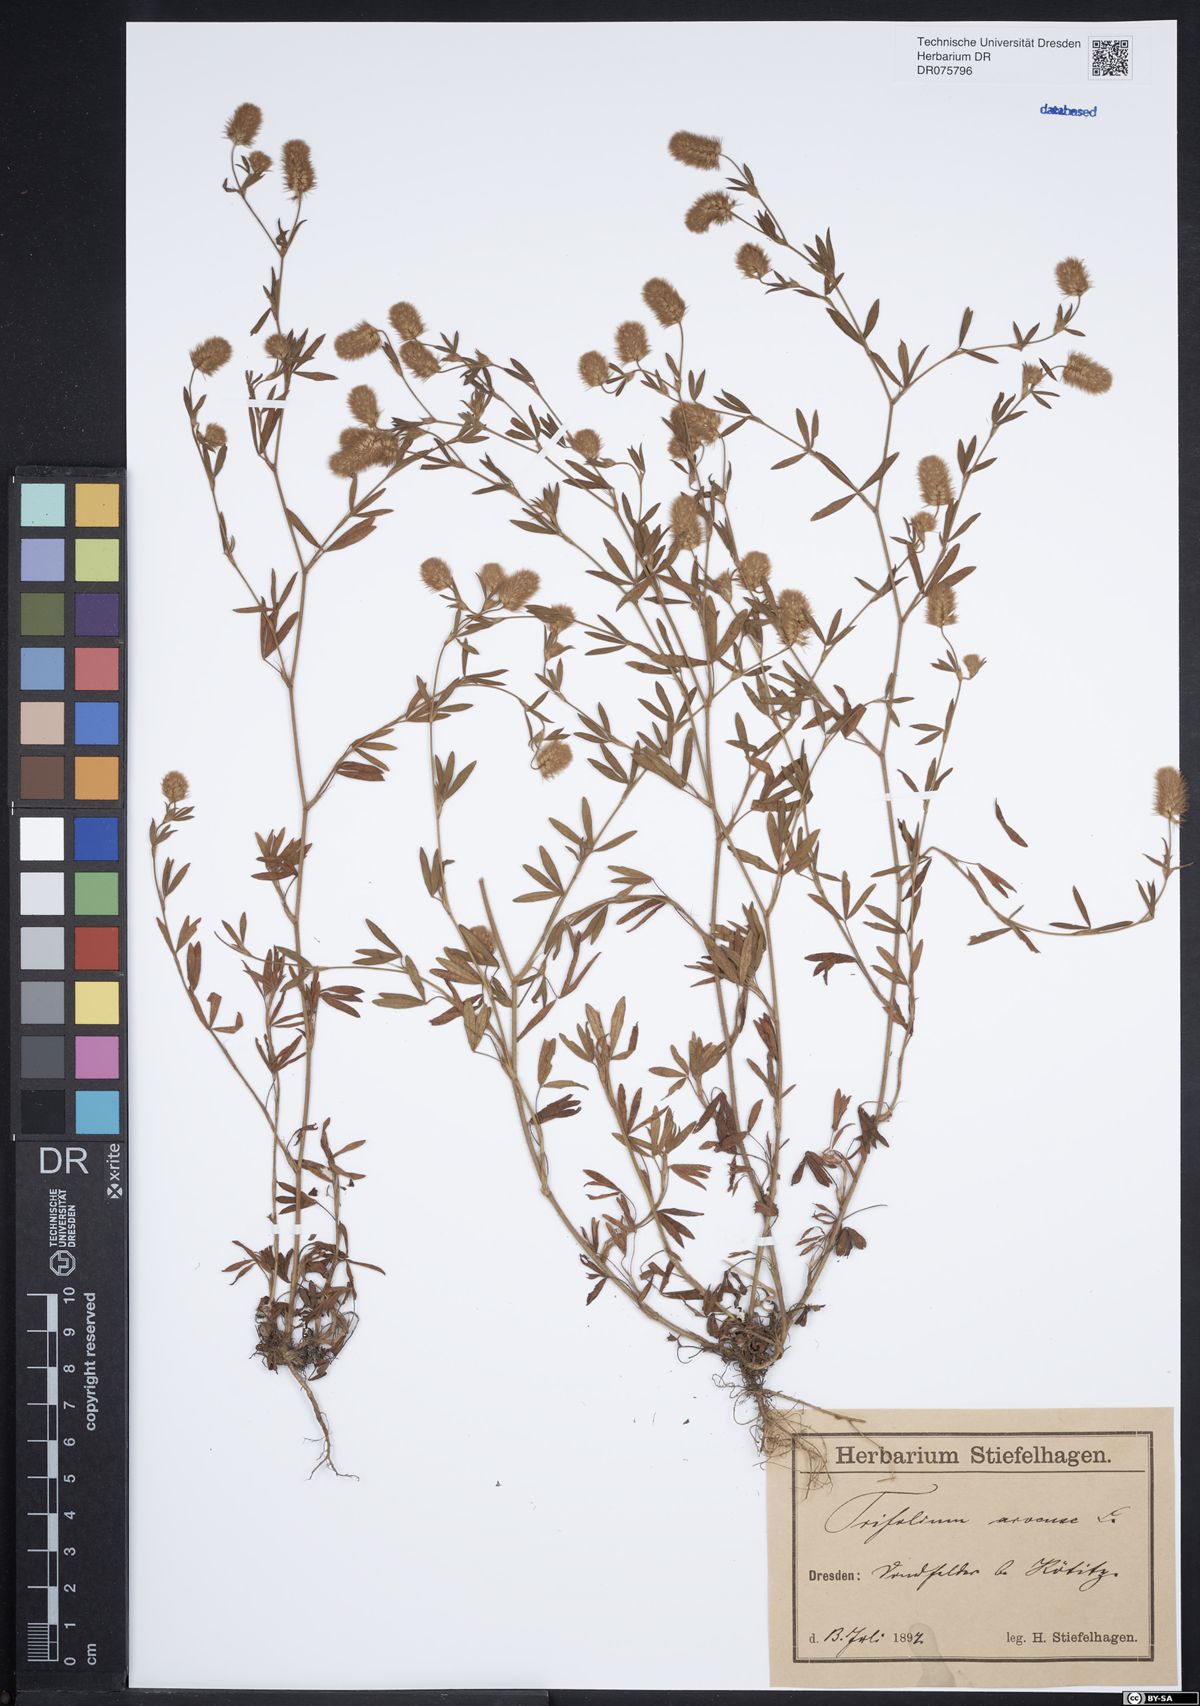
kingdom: Plantae
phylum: Tracheophyta
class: Magnoliopsida
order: Fabales
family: Fabaceae
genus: Trifolium
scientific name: Trifolium arvense
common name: Hare's-foot clover
